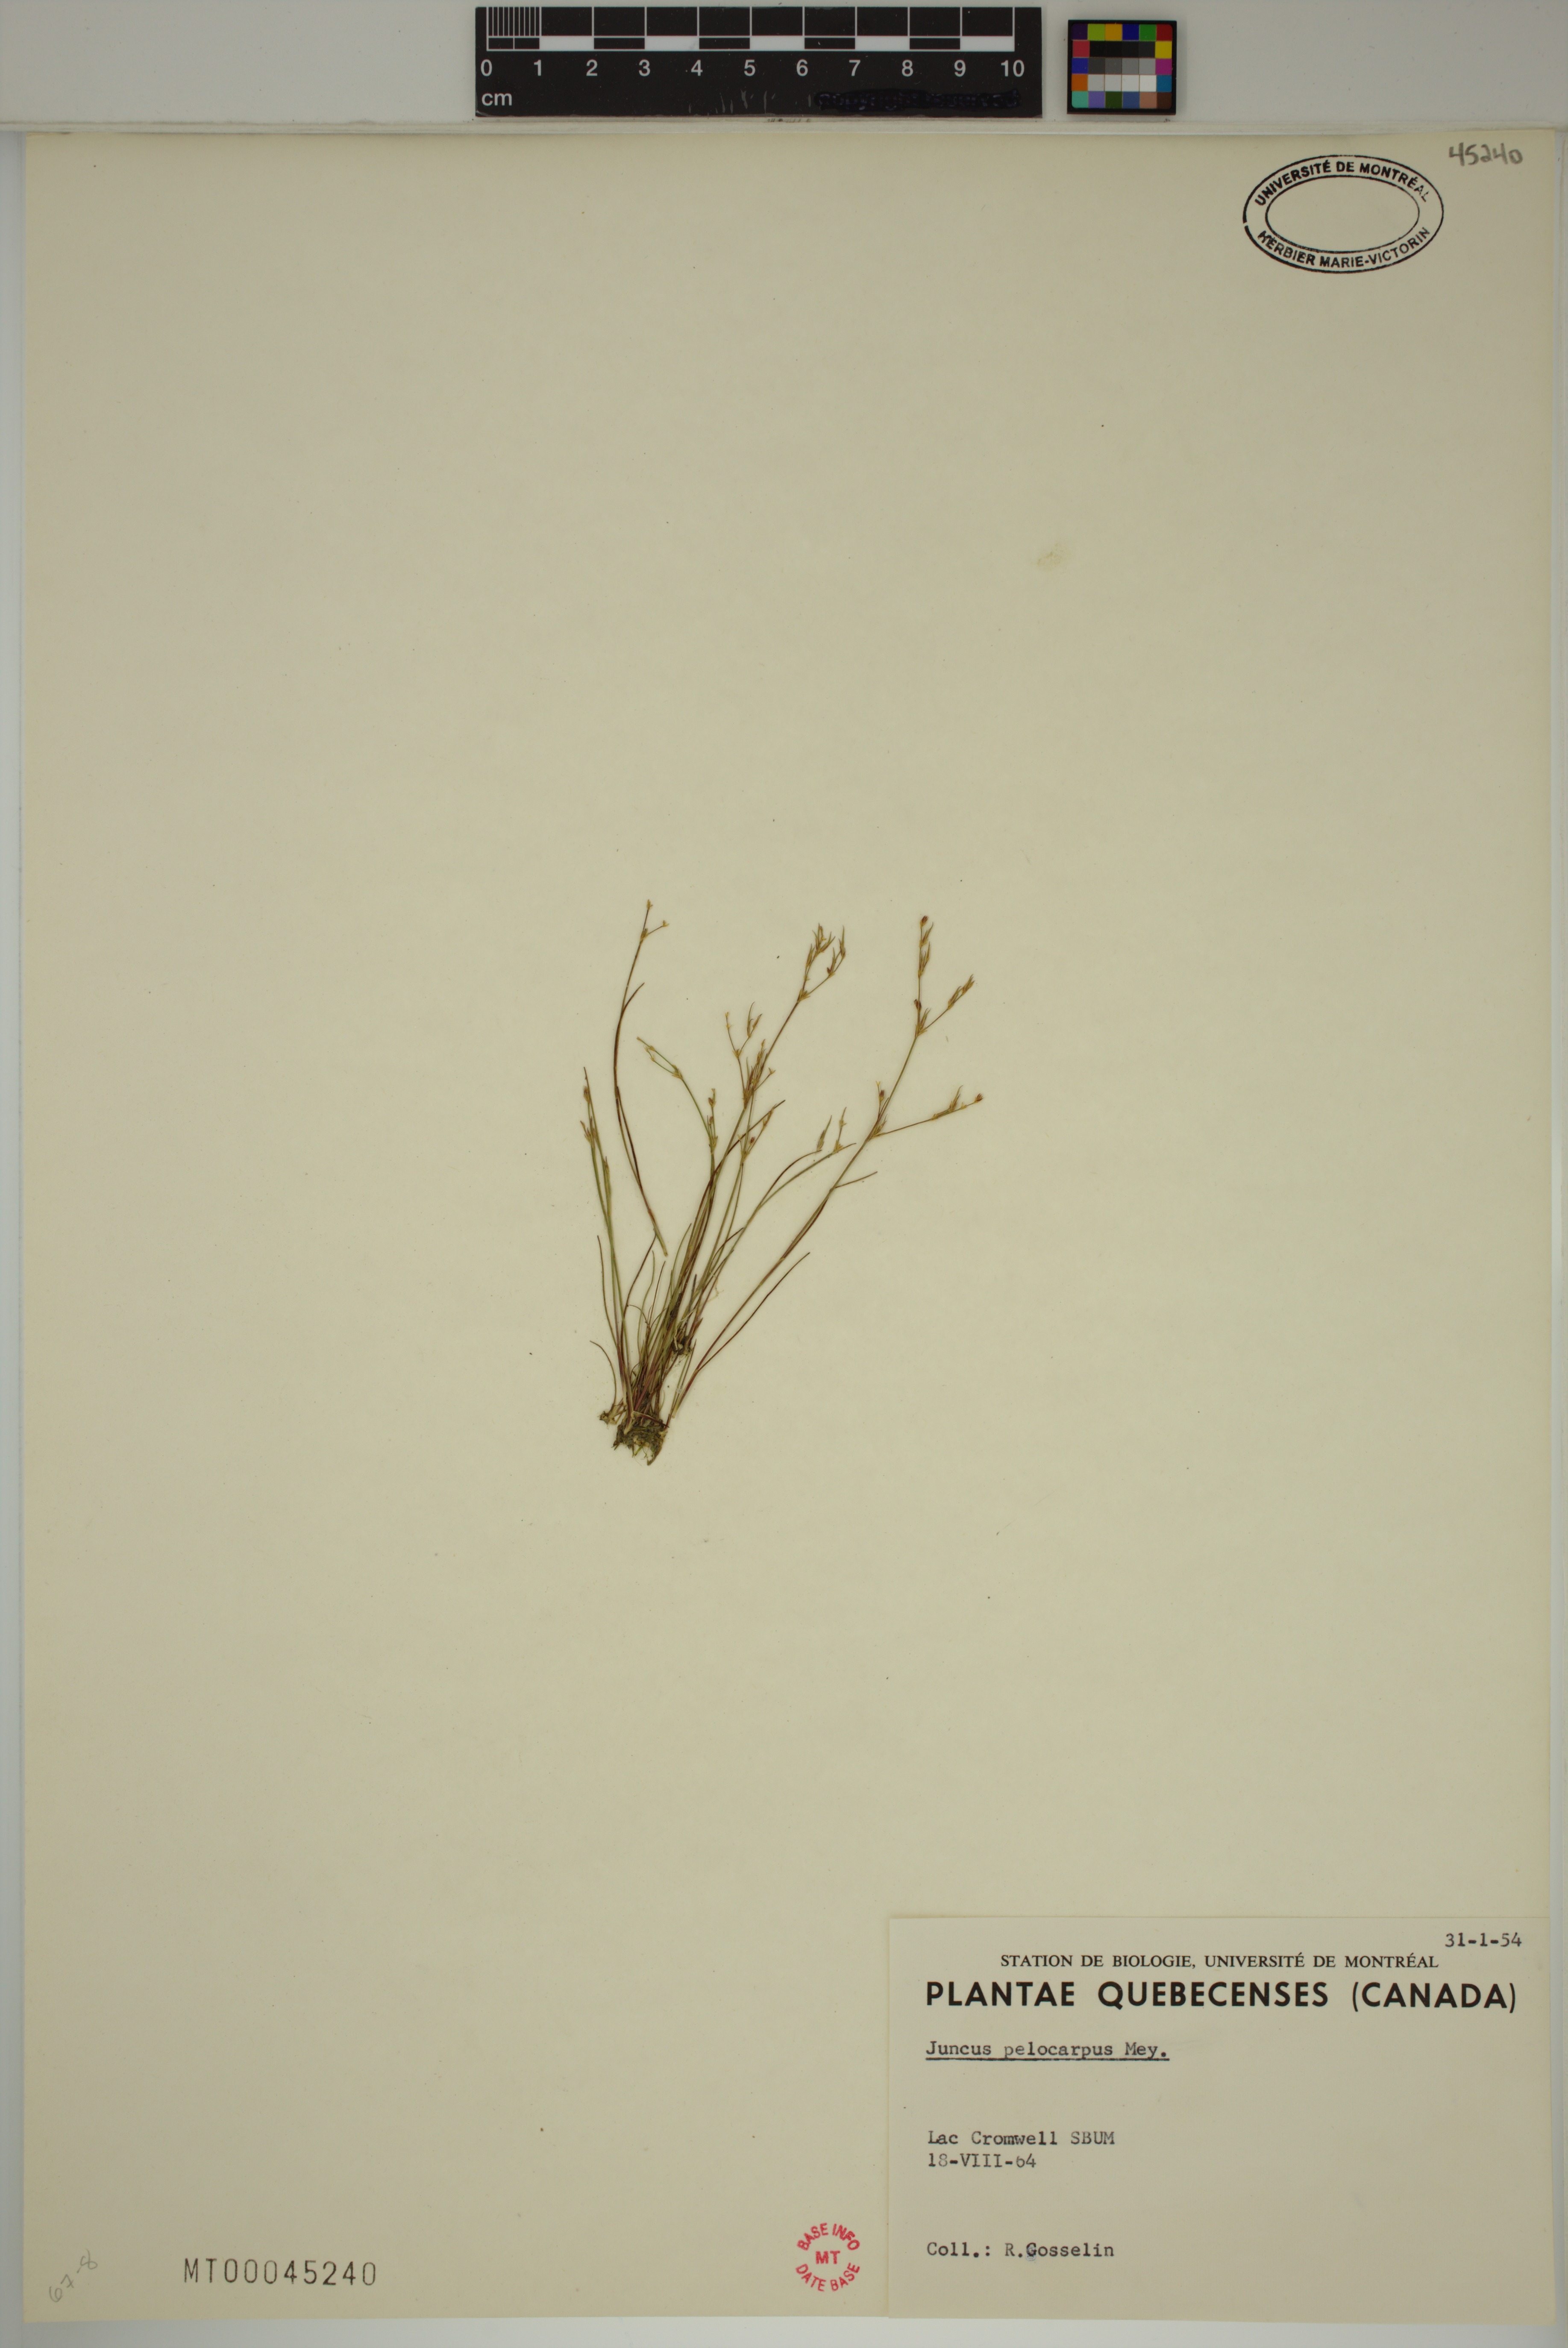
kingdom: Plantae
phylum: Tracheophyta
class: Liliopsida
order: Poales
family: Juncaceae
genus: Juncus
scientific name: Juncus pelocarpus
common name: Brown-fruited rush
